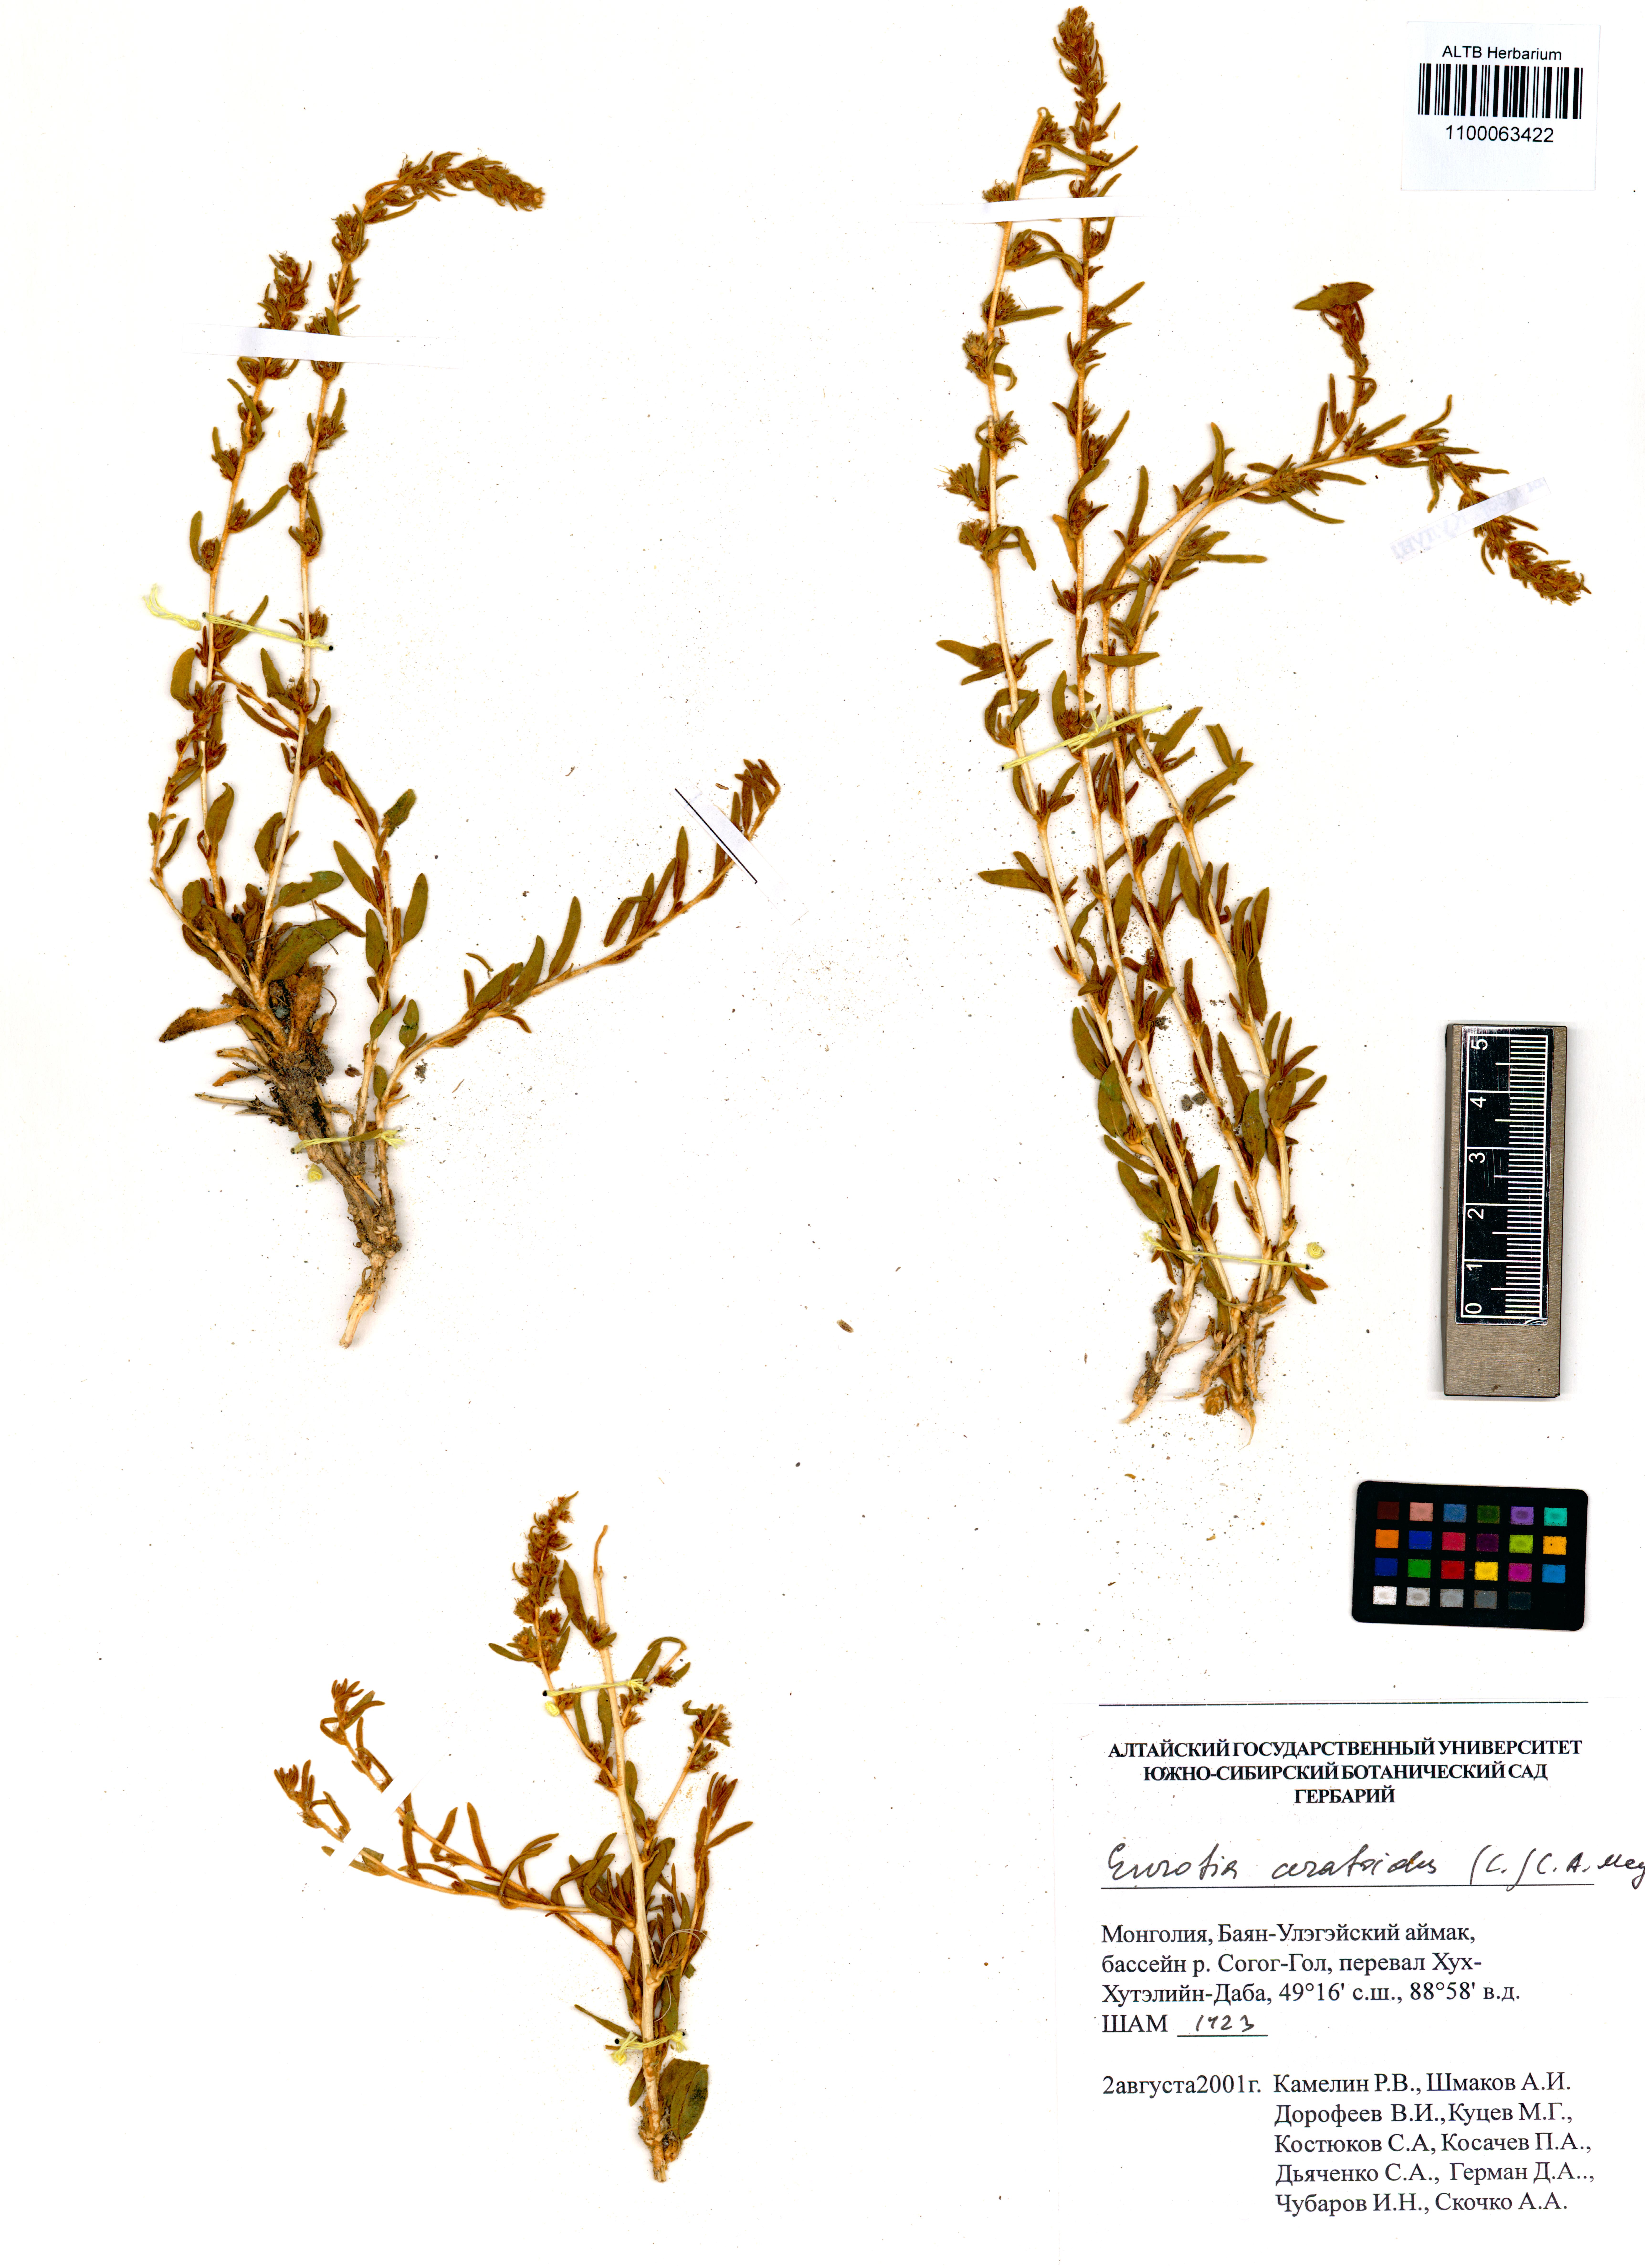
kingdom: Plantae
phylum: Tracheophyta
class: Magnoliopsida
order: Caryophyllales
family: Amaranthaceae
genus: Krascheninnikovia
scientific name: Krascheninnikovia ceratoides
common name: Pamirian winterfat
